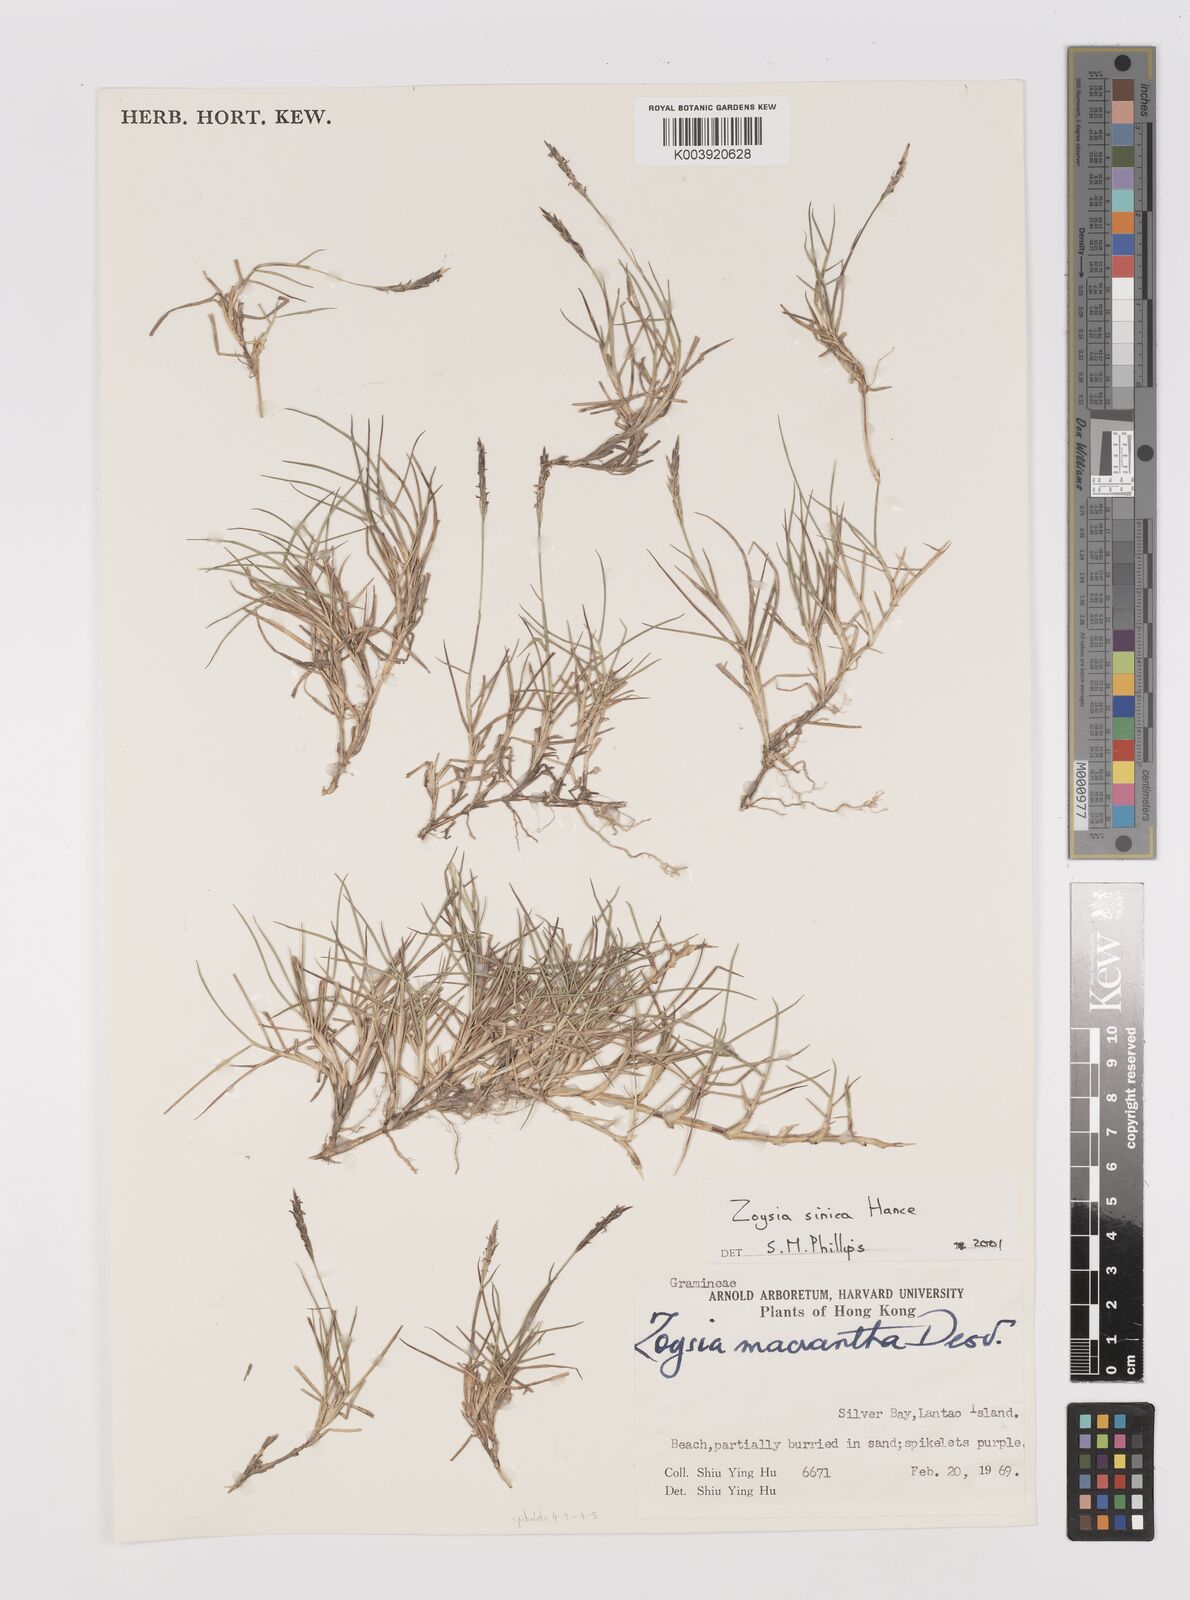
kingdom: Plantae
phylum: Tracheophyta
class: Liliopsida
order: Poales
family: Poaceae
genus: Zoysia
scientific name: Zoysia sinica
